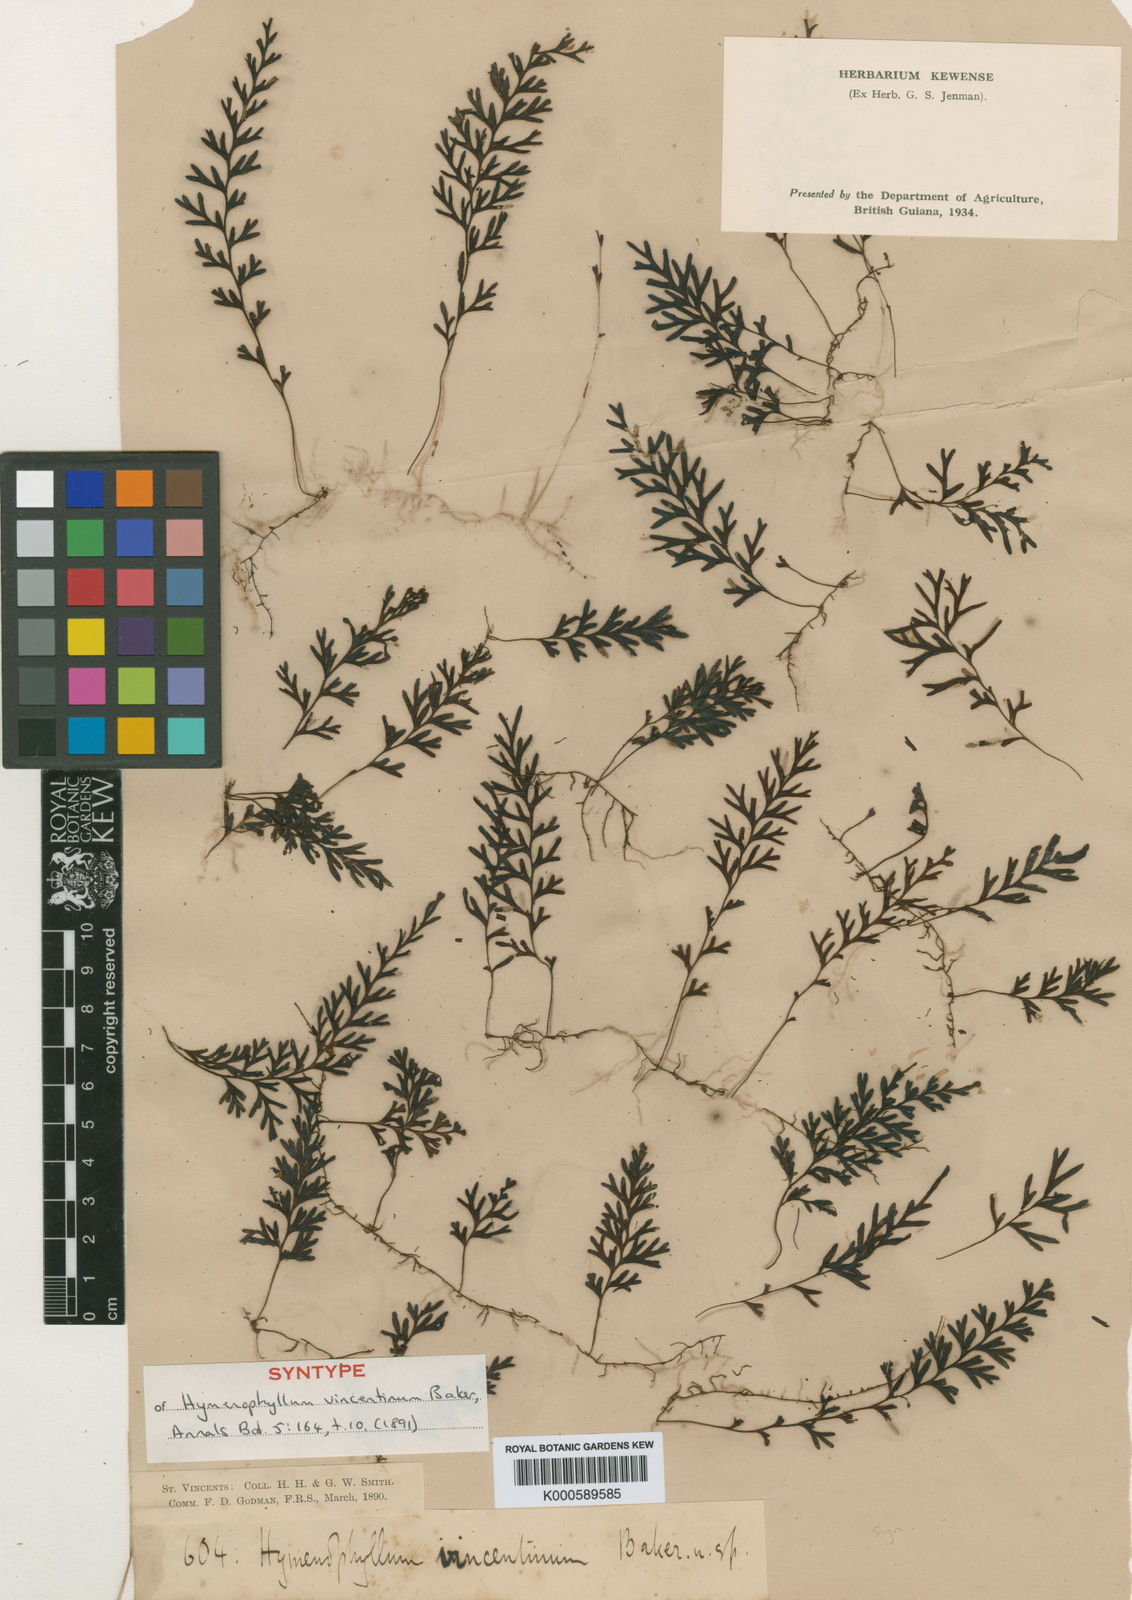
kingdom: Plantae
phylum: Tracheophyta
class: Polypodiopsida
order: Hymenophyllales
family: Hymenophyllaceae
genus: Hymenophyllum
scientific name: Hymenophyllum
